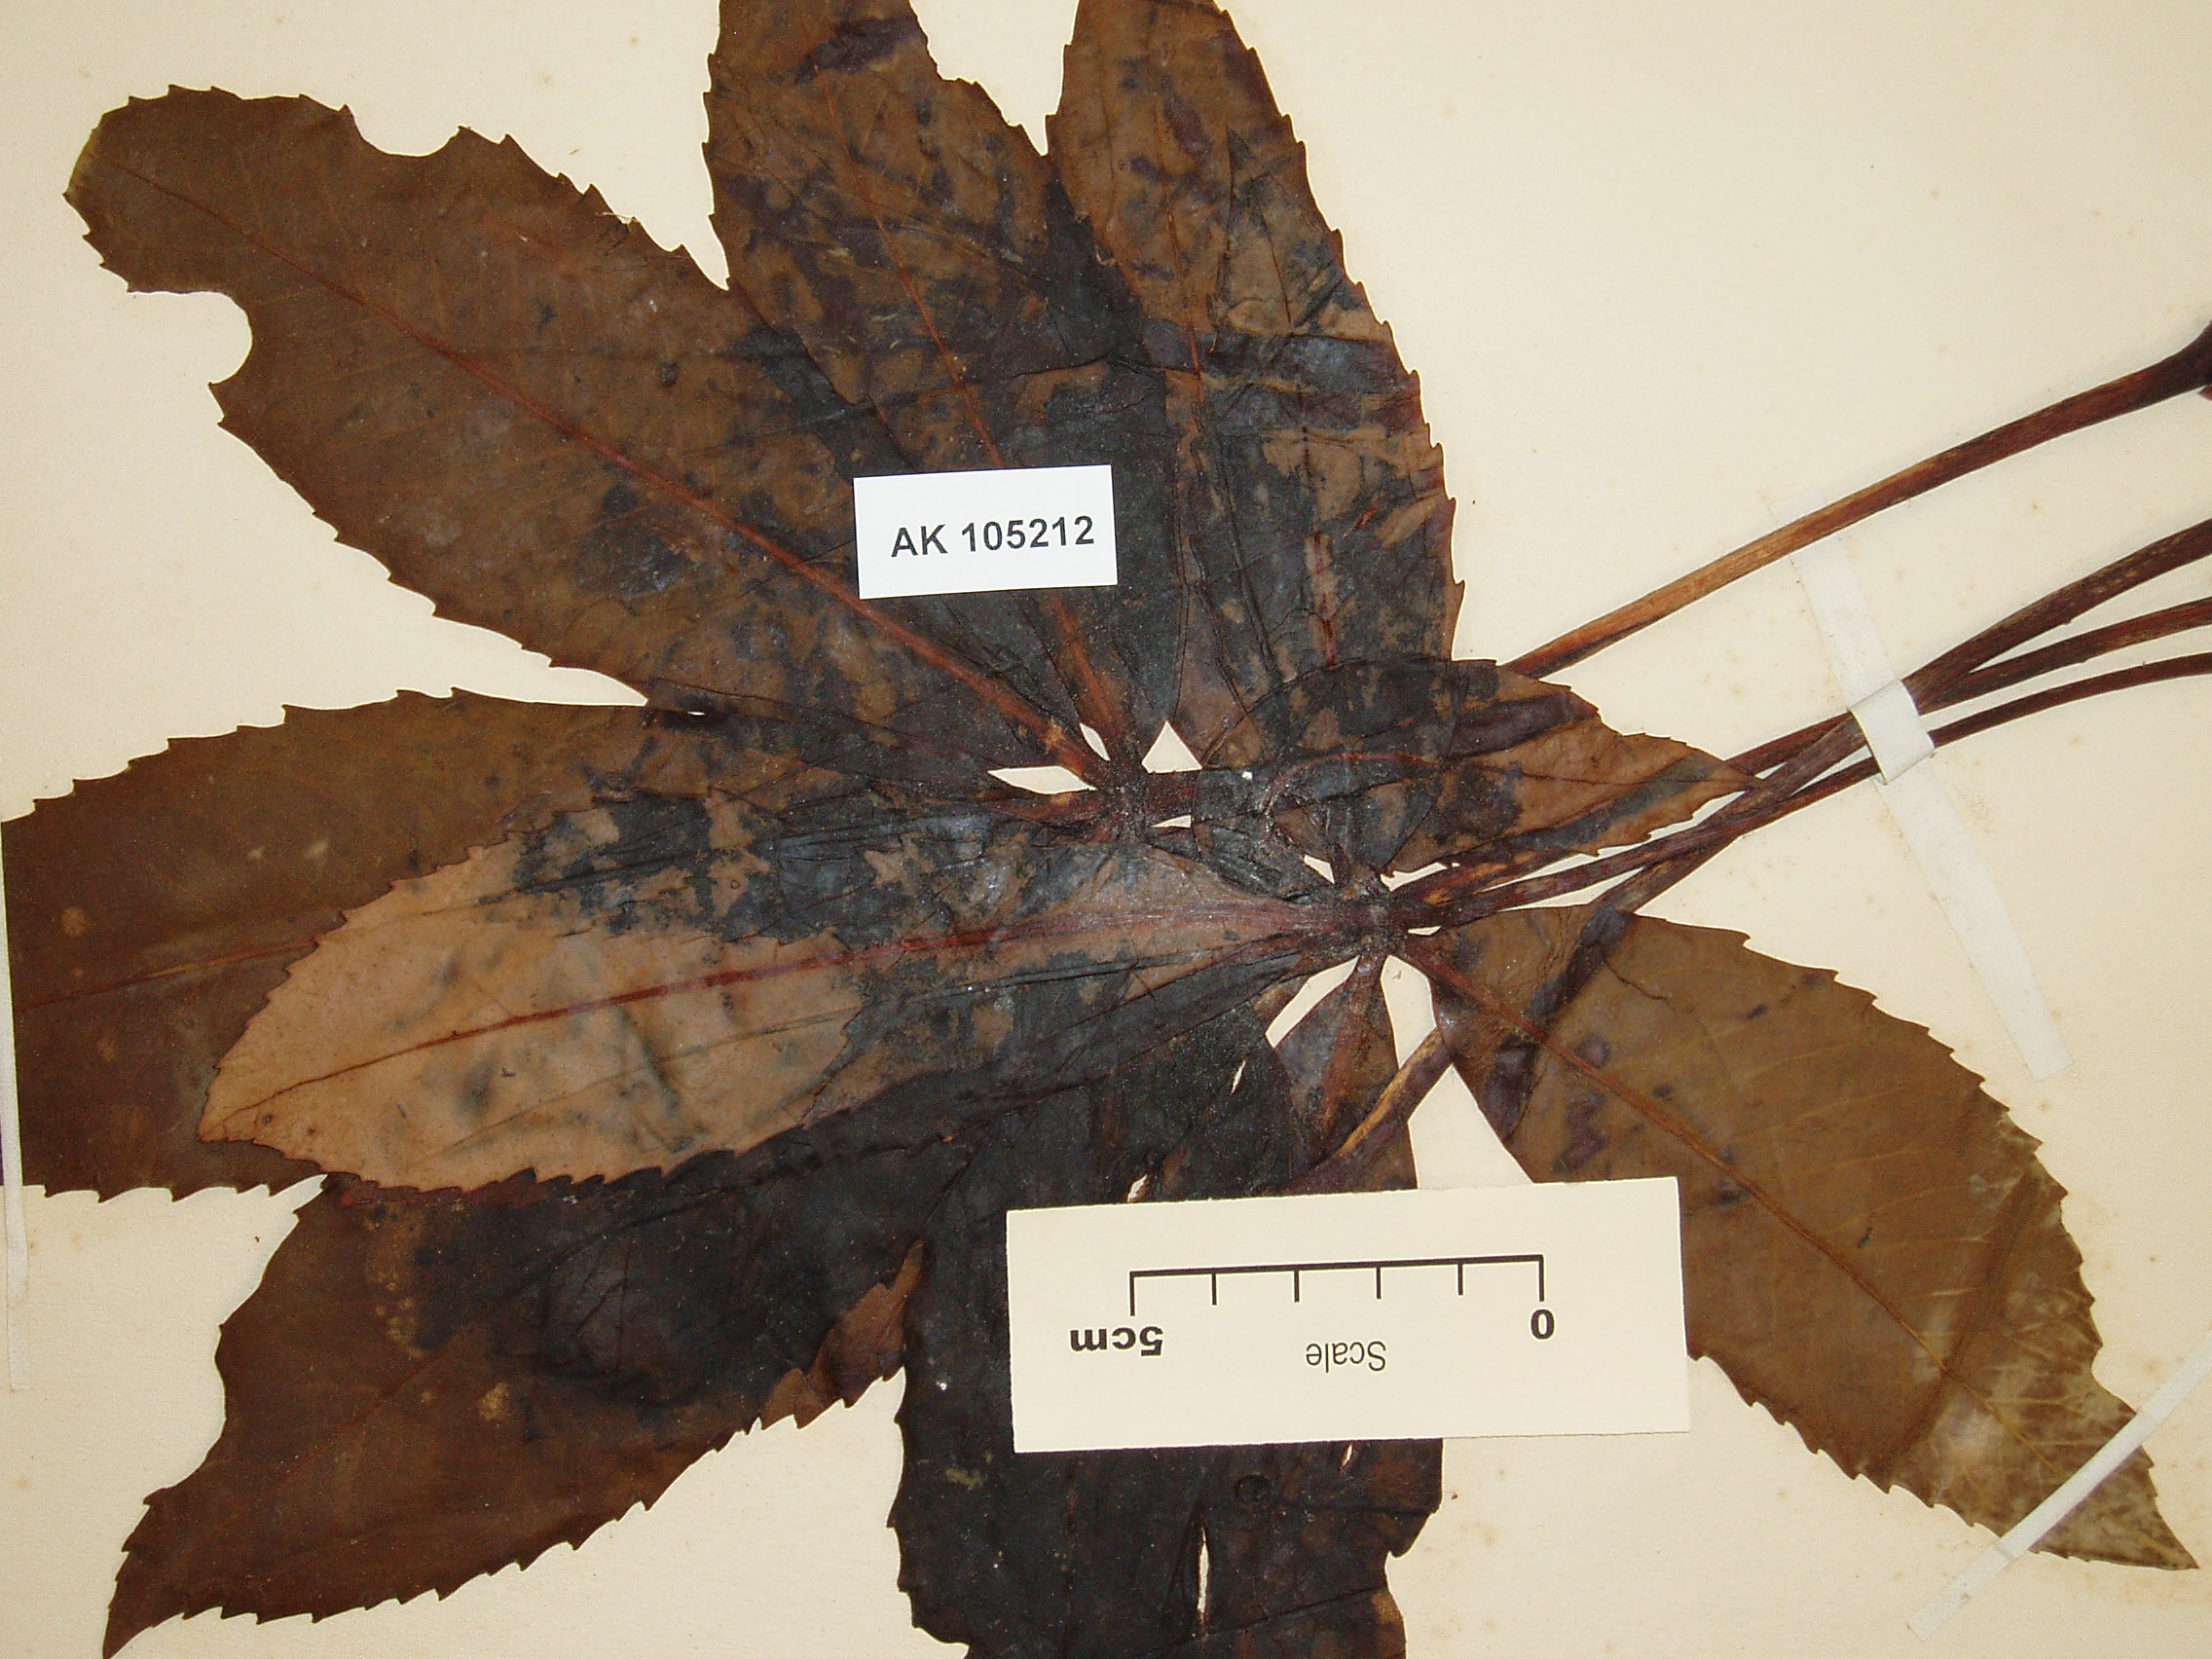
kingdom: Plantae
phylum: Tracheophyta
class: Magnoliopsida
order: Apiales
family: Araliaceae
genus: Neopanax
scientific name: Neopanax colensoi
